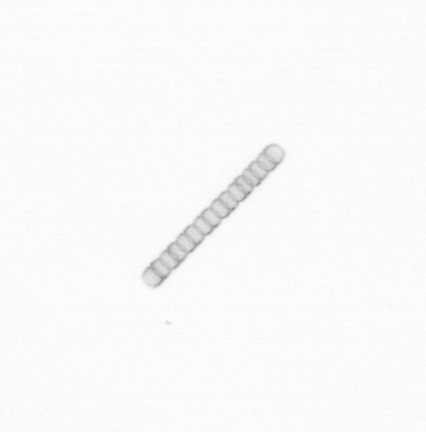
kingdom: Chromista
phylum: Ochrophyta
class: Bacillariophyceae
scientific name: Bacillariophyceae
